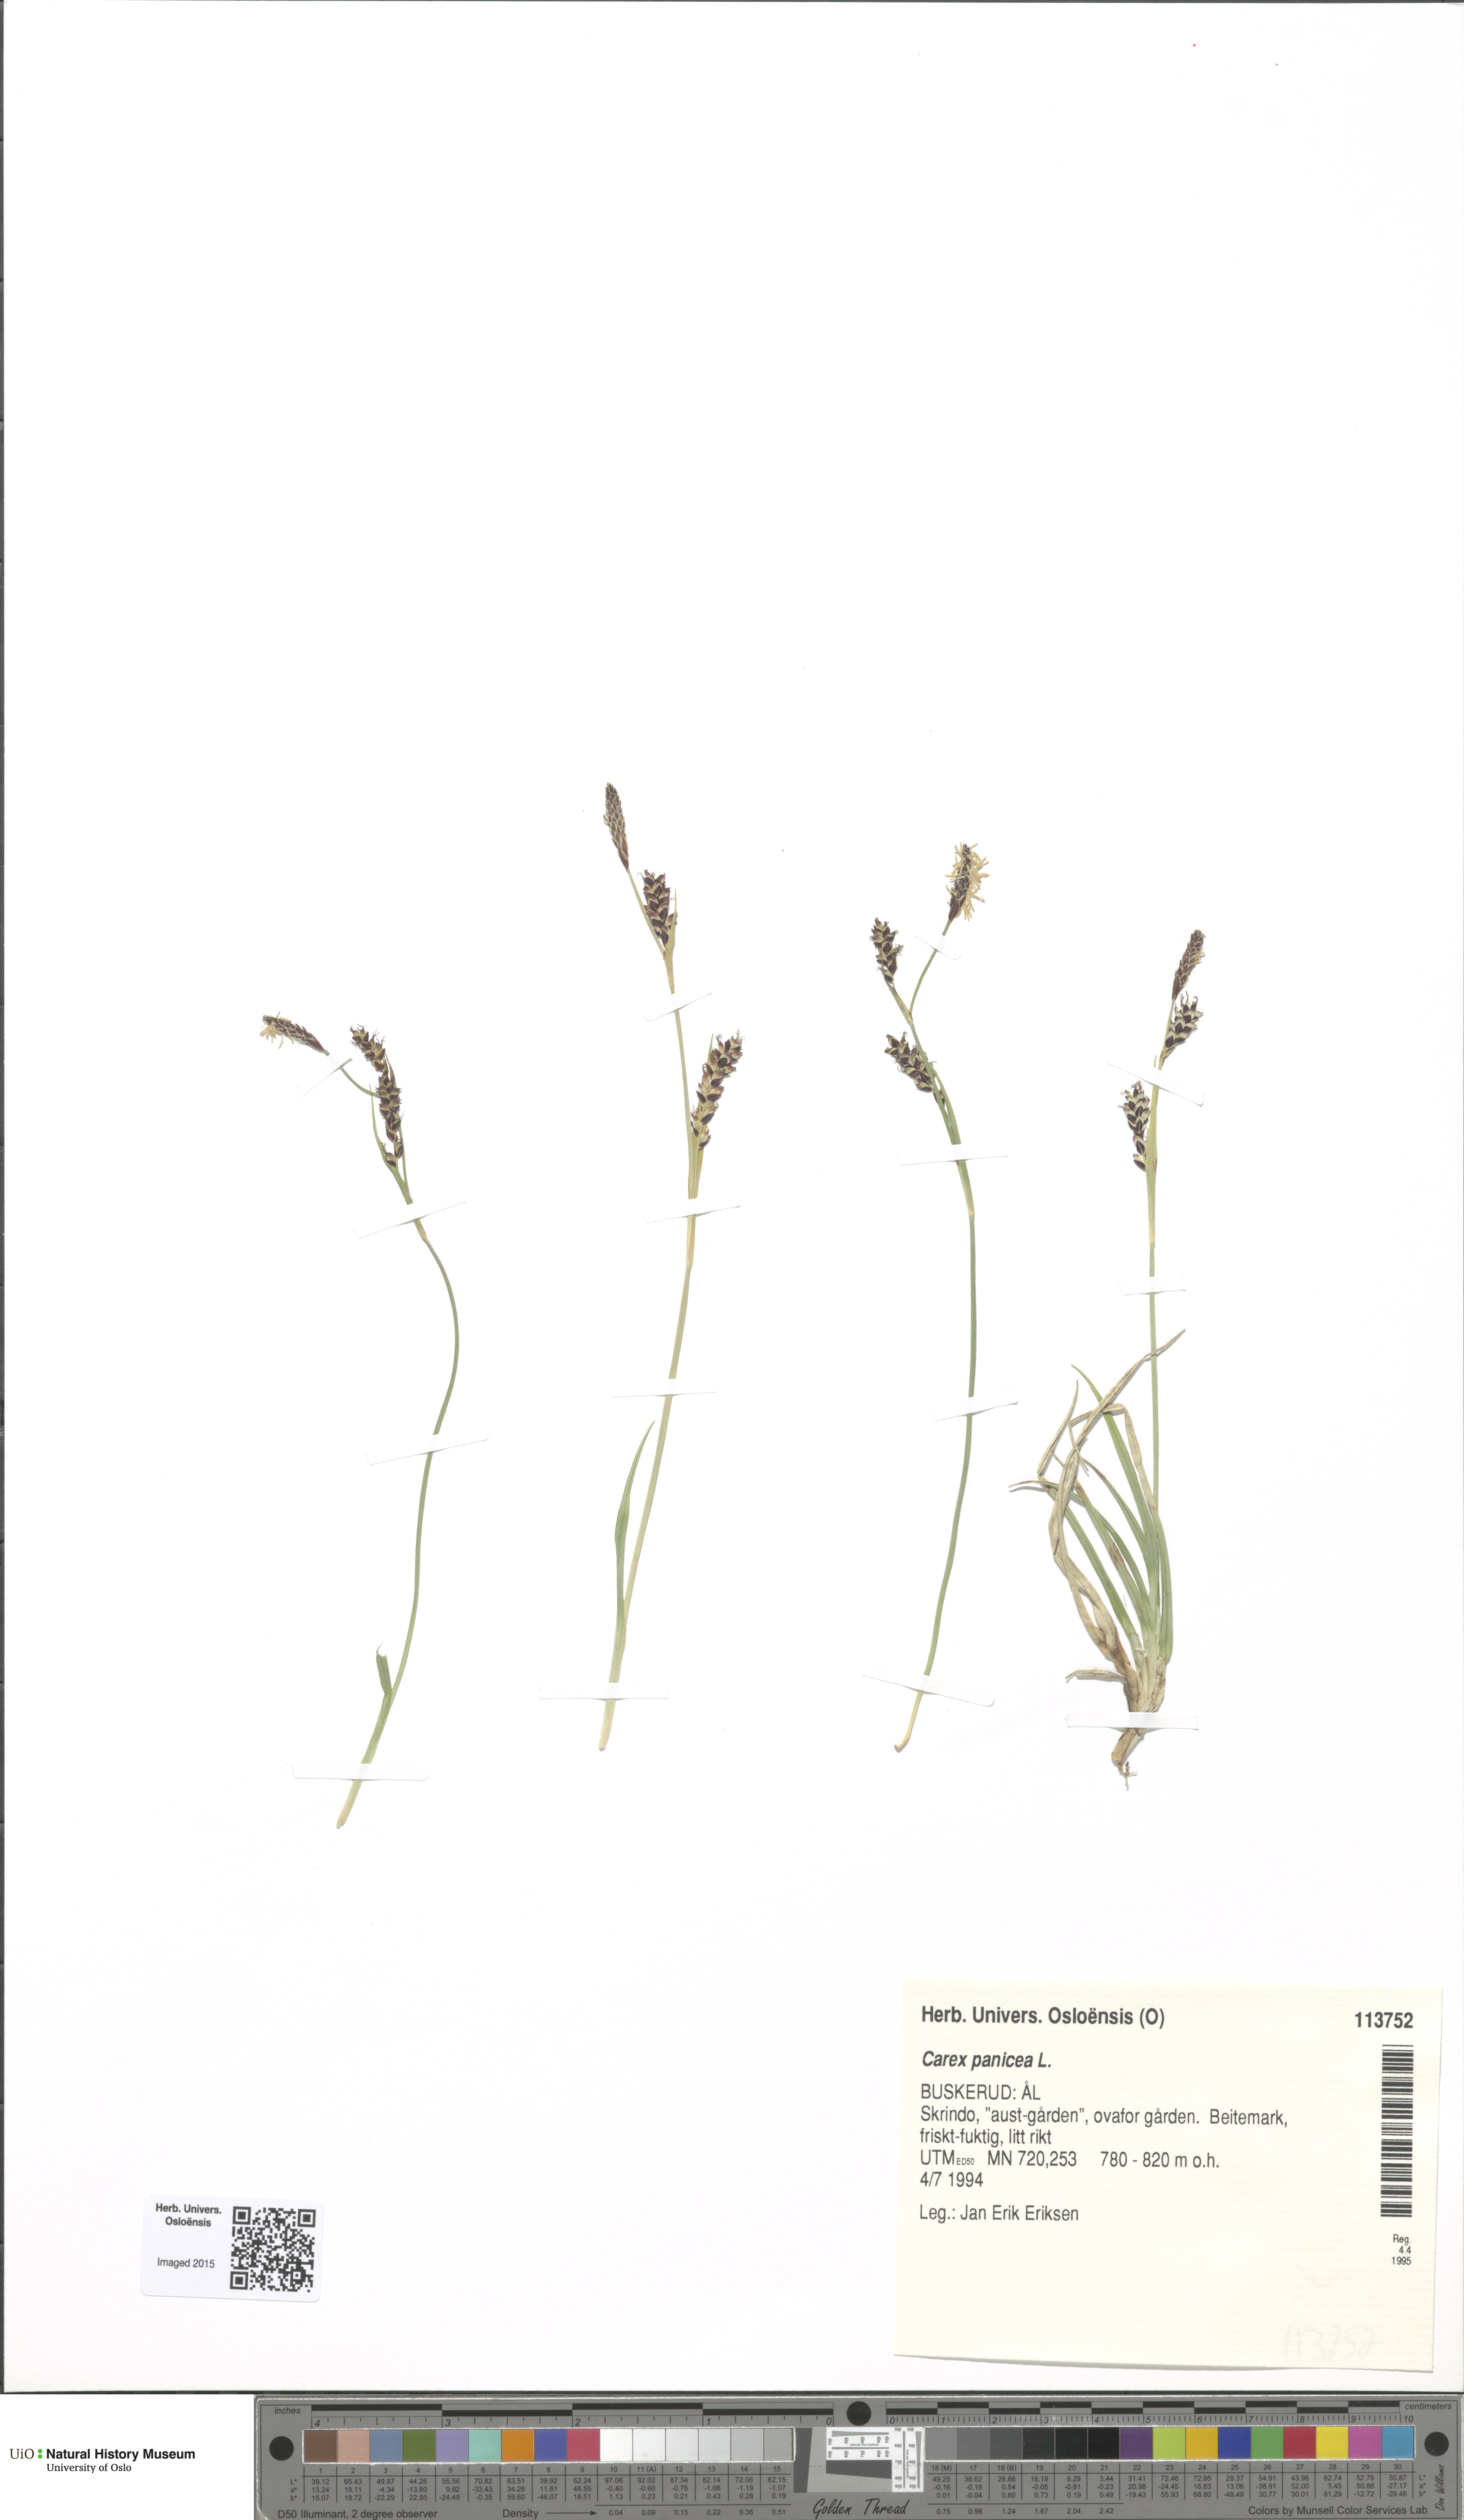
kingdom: Plantae
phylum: Tracheophyta
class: Liliopsida
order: Poales
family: Cyperaceae
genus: Carex
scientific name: Carex panicea
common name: Carnation sedge
